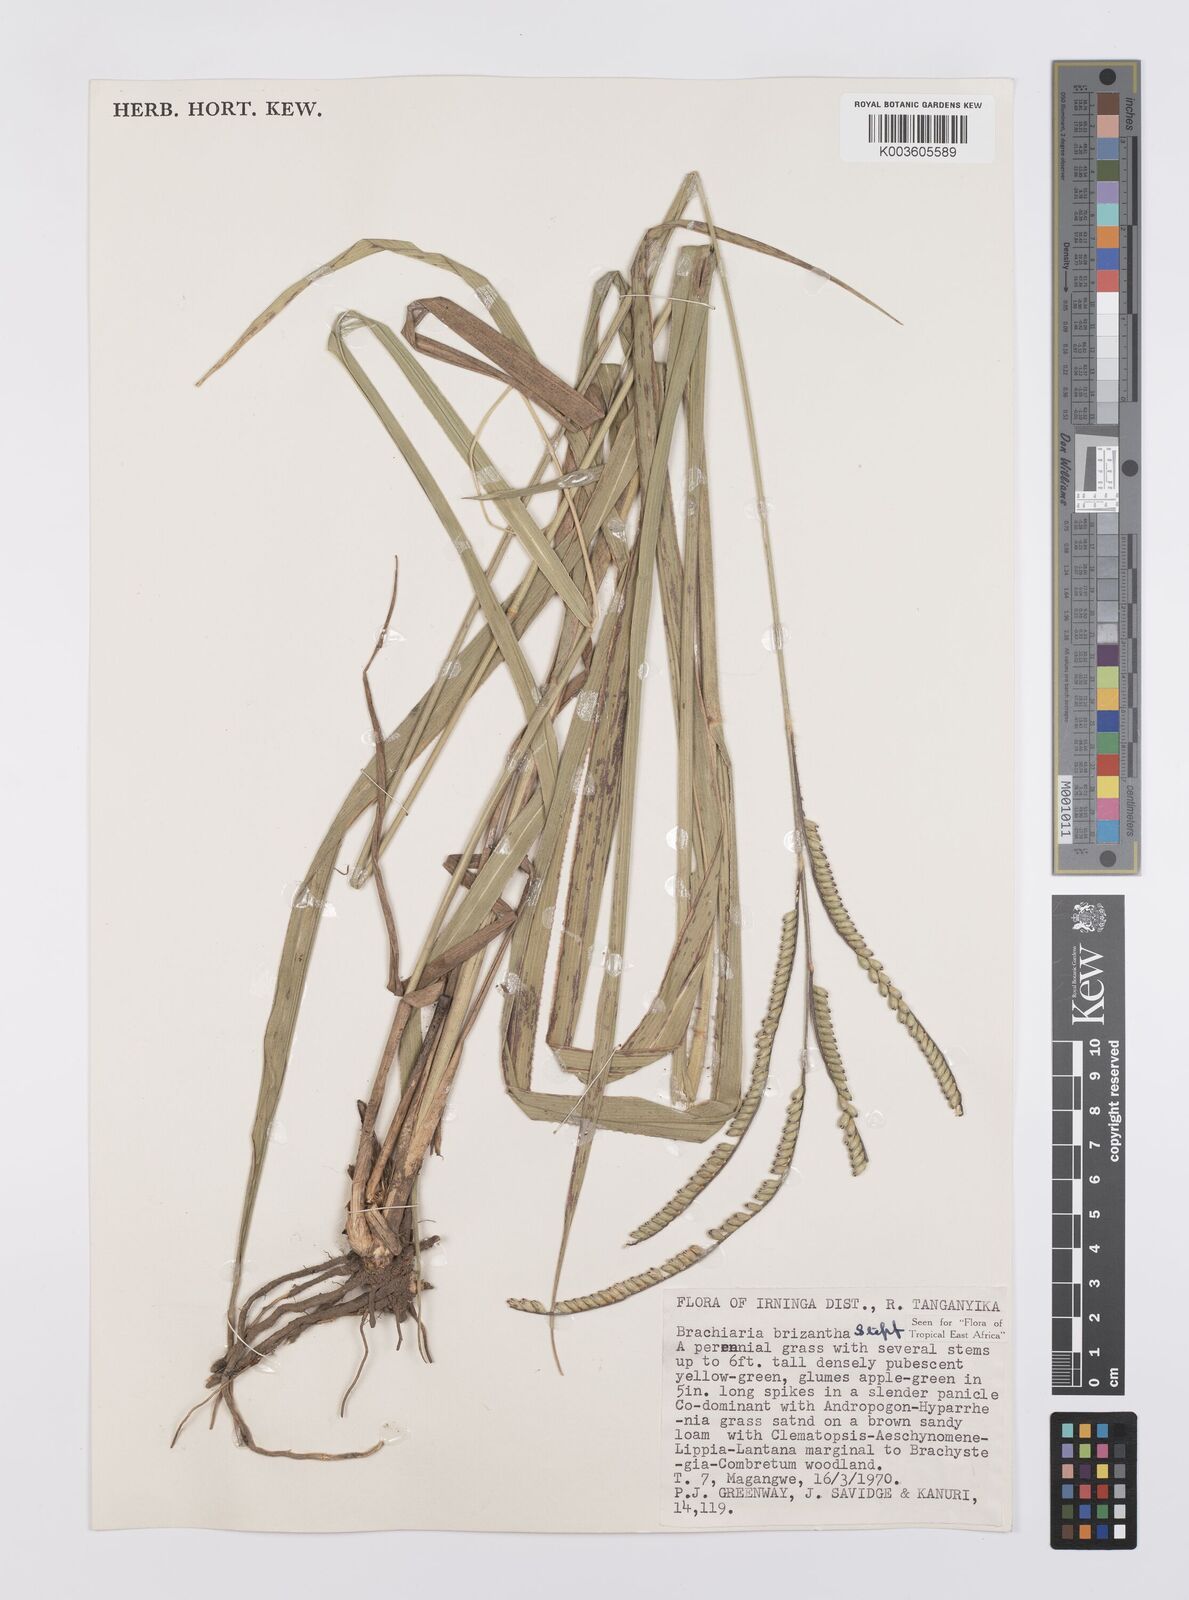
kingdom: Plantae
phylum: Tracheophyta
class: Liliopsida
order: Poales
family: Poaceae
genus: Urochloa
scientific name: Urochloa brizantha
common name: Palisade signalgrass
